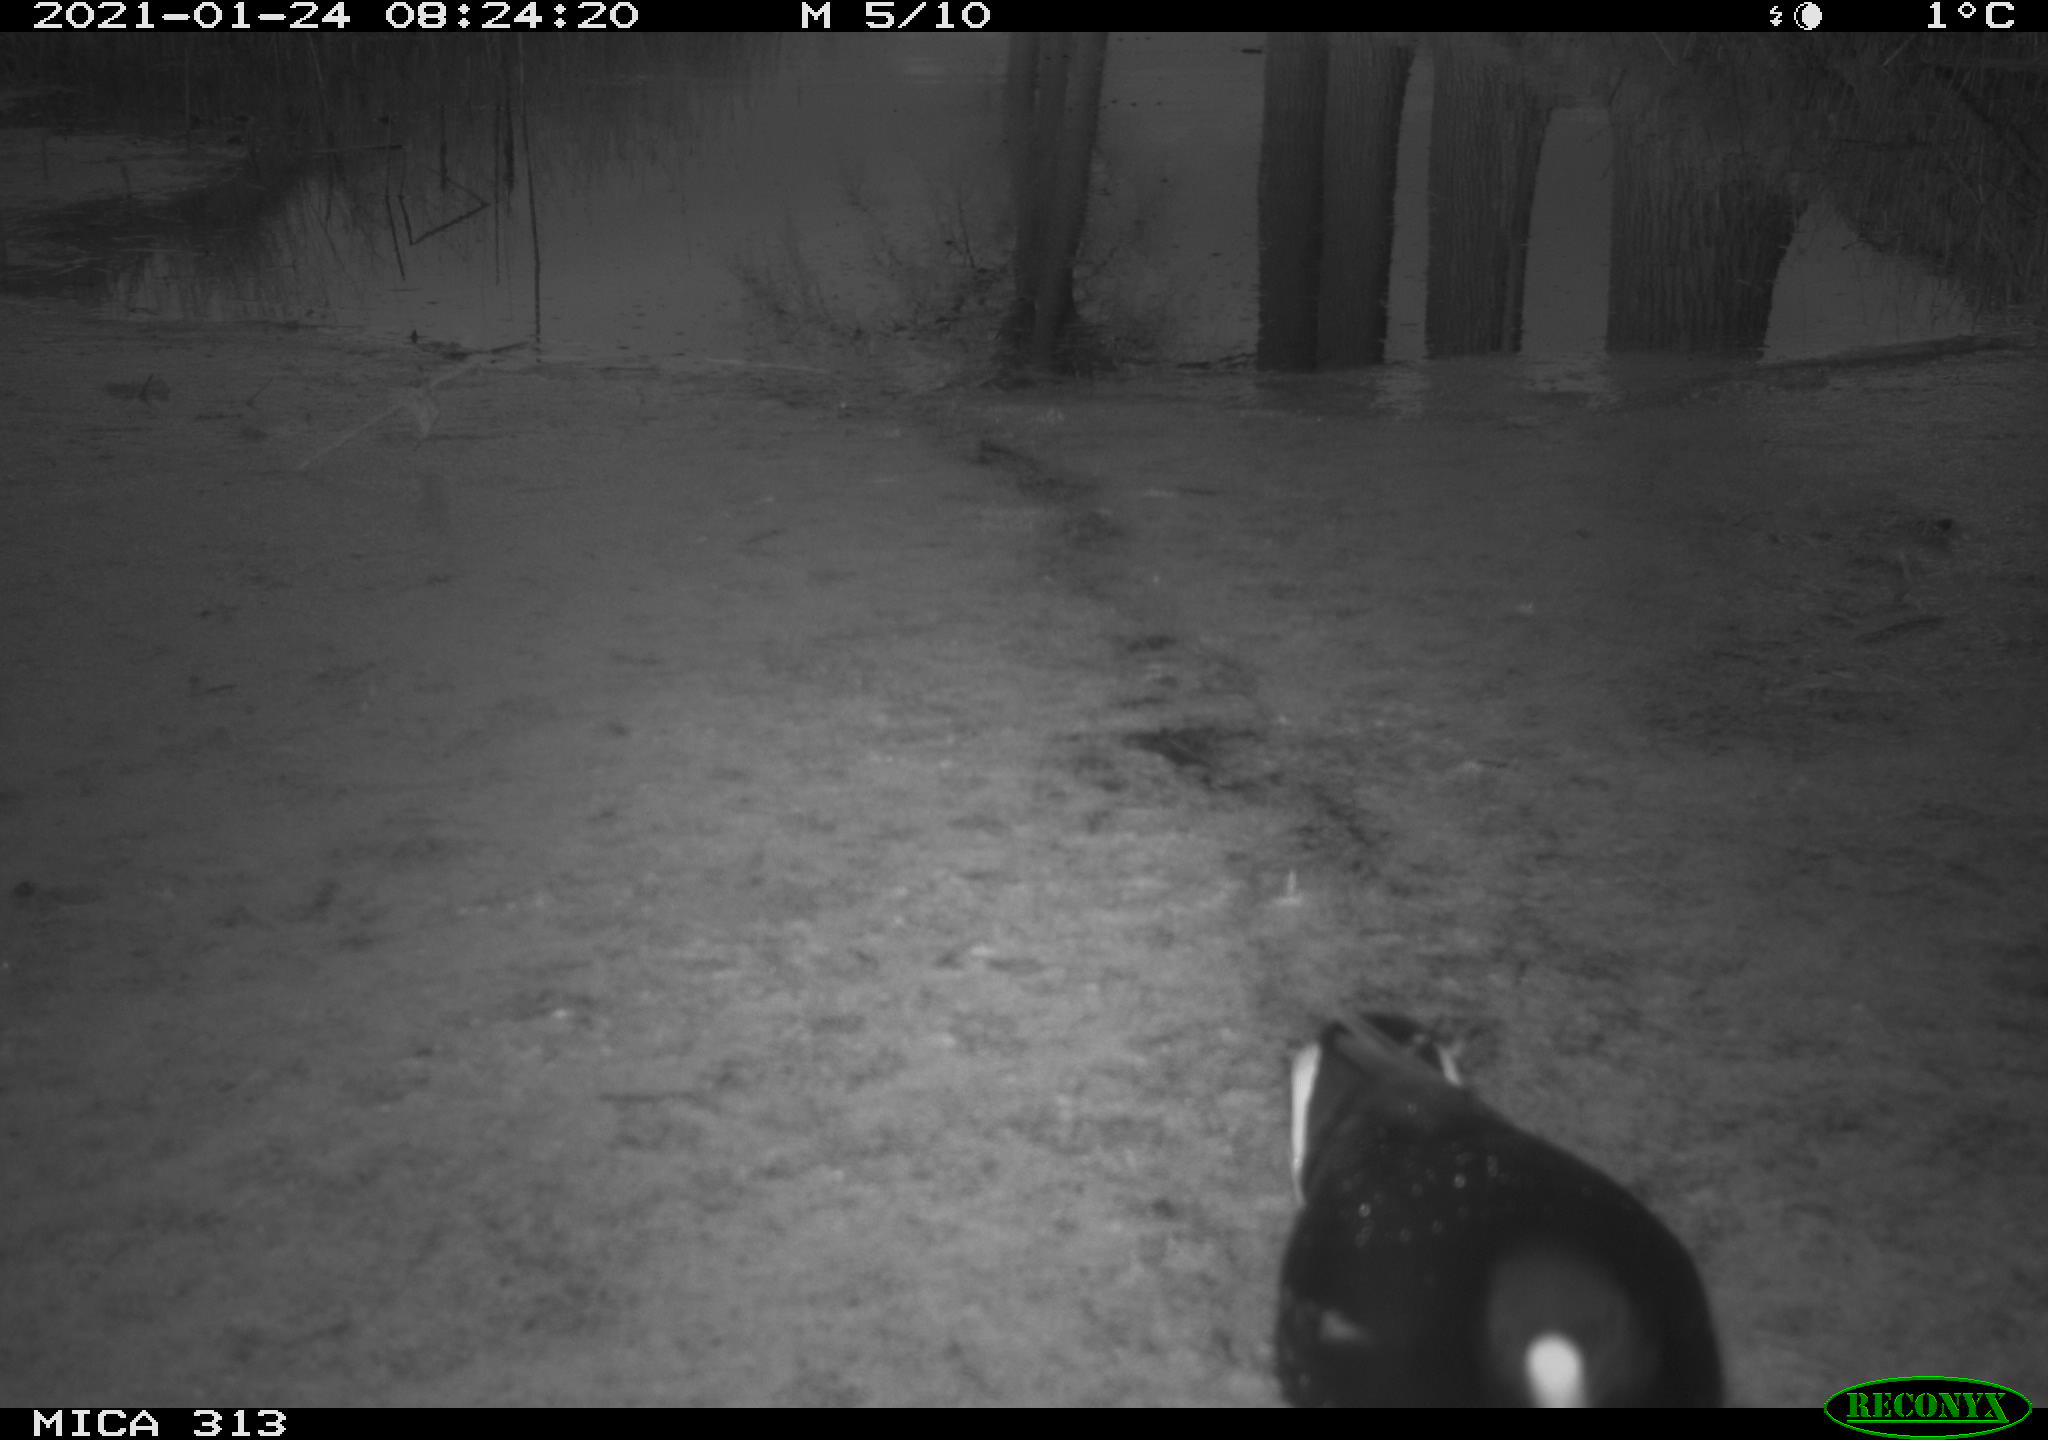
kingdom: Animalia
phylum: Chordata
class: Aves
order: Gruiformes
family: Rallidae
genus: Fulica
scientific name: Fulica atra
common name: Eurasian coot
